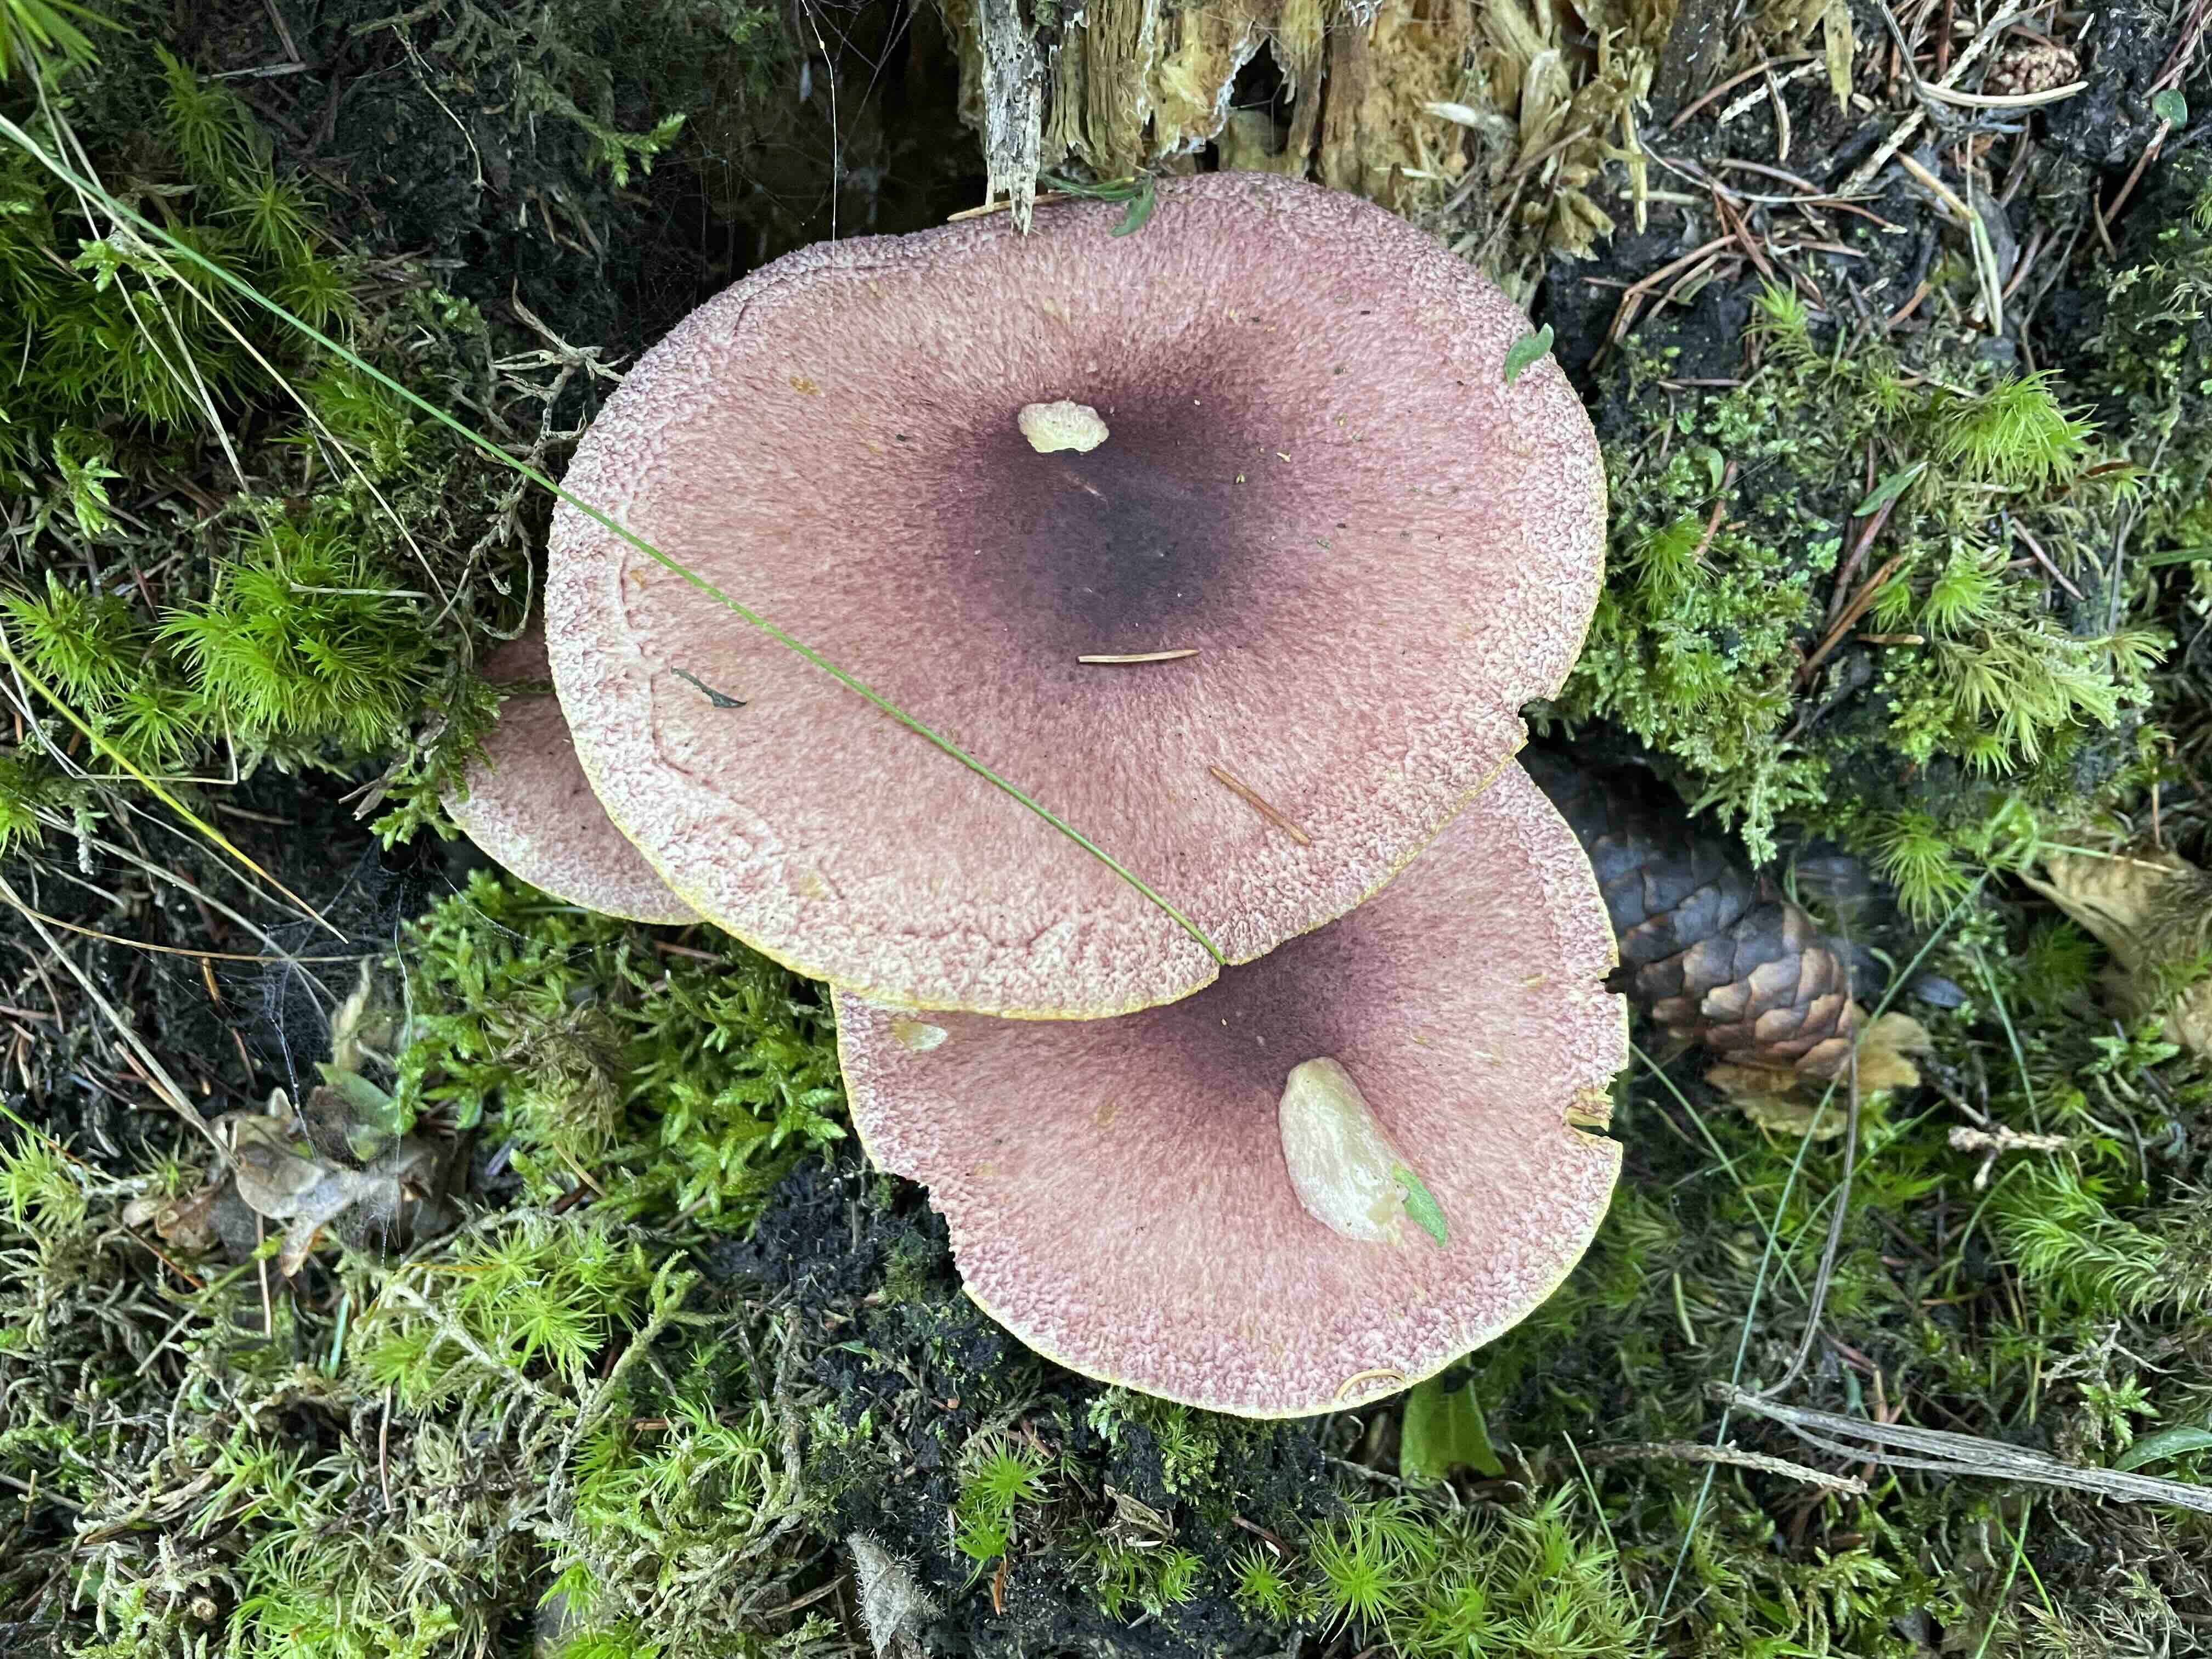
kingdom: Fungi
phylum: Basidiomycota
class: Agaricomycetes
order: Agaricales
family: Tricholomataceae
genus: Tricholomopsis
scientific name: Tricholomopsis rutilans
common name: purpur-væbnerhat
